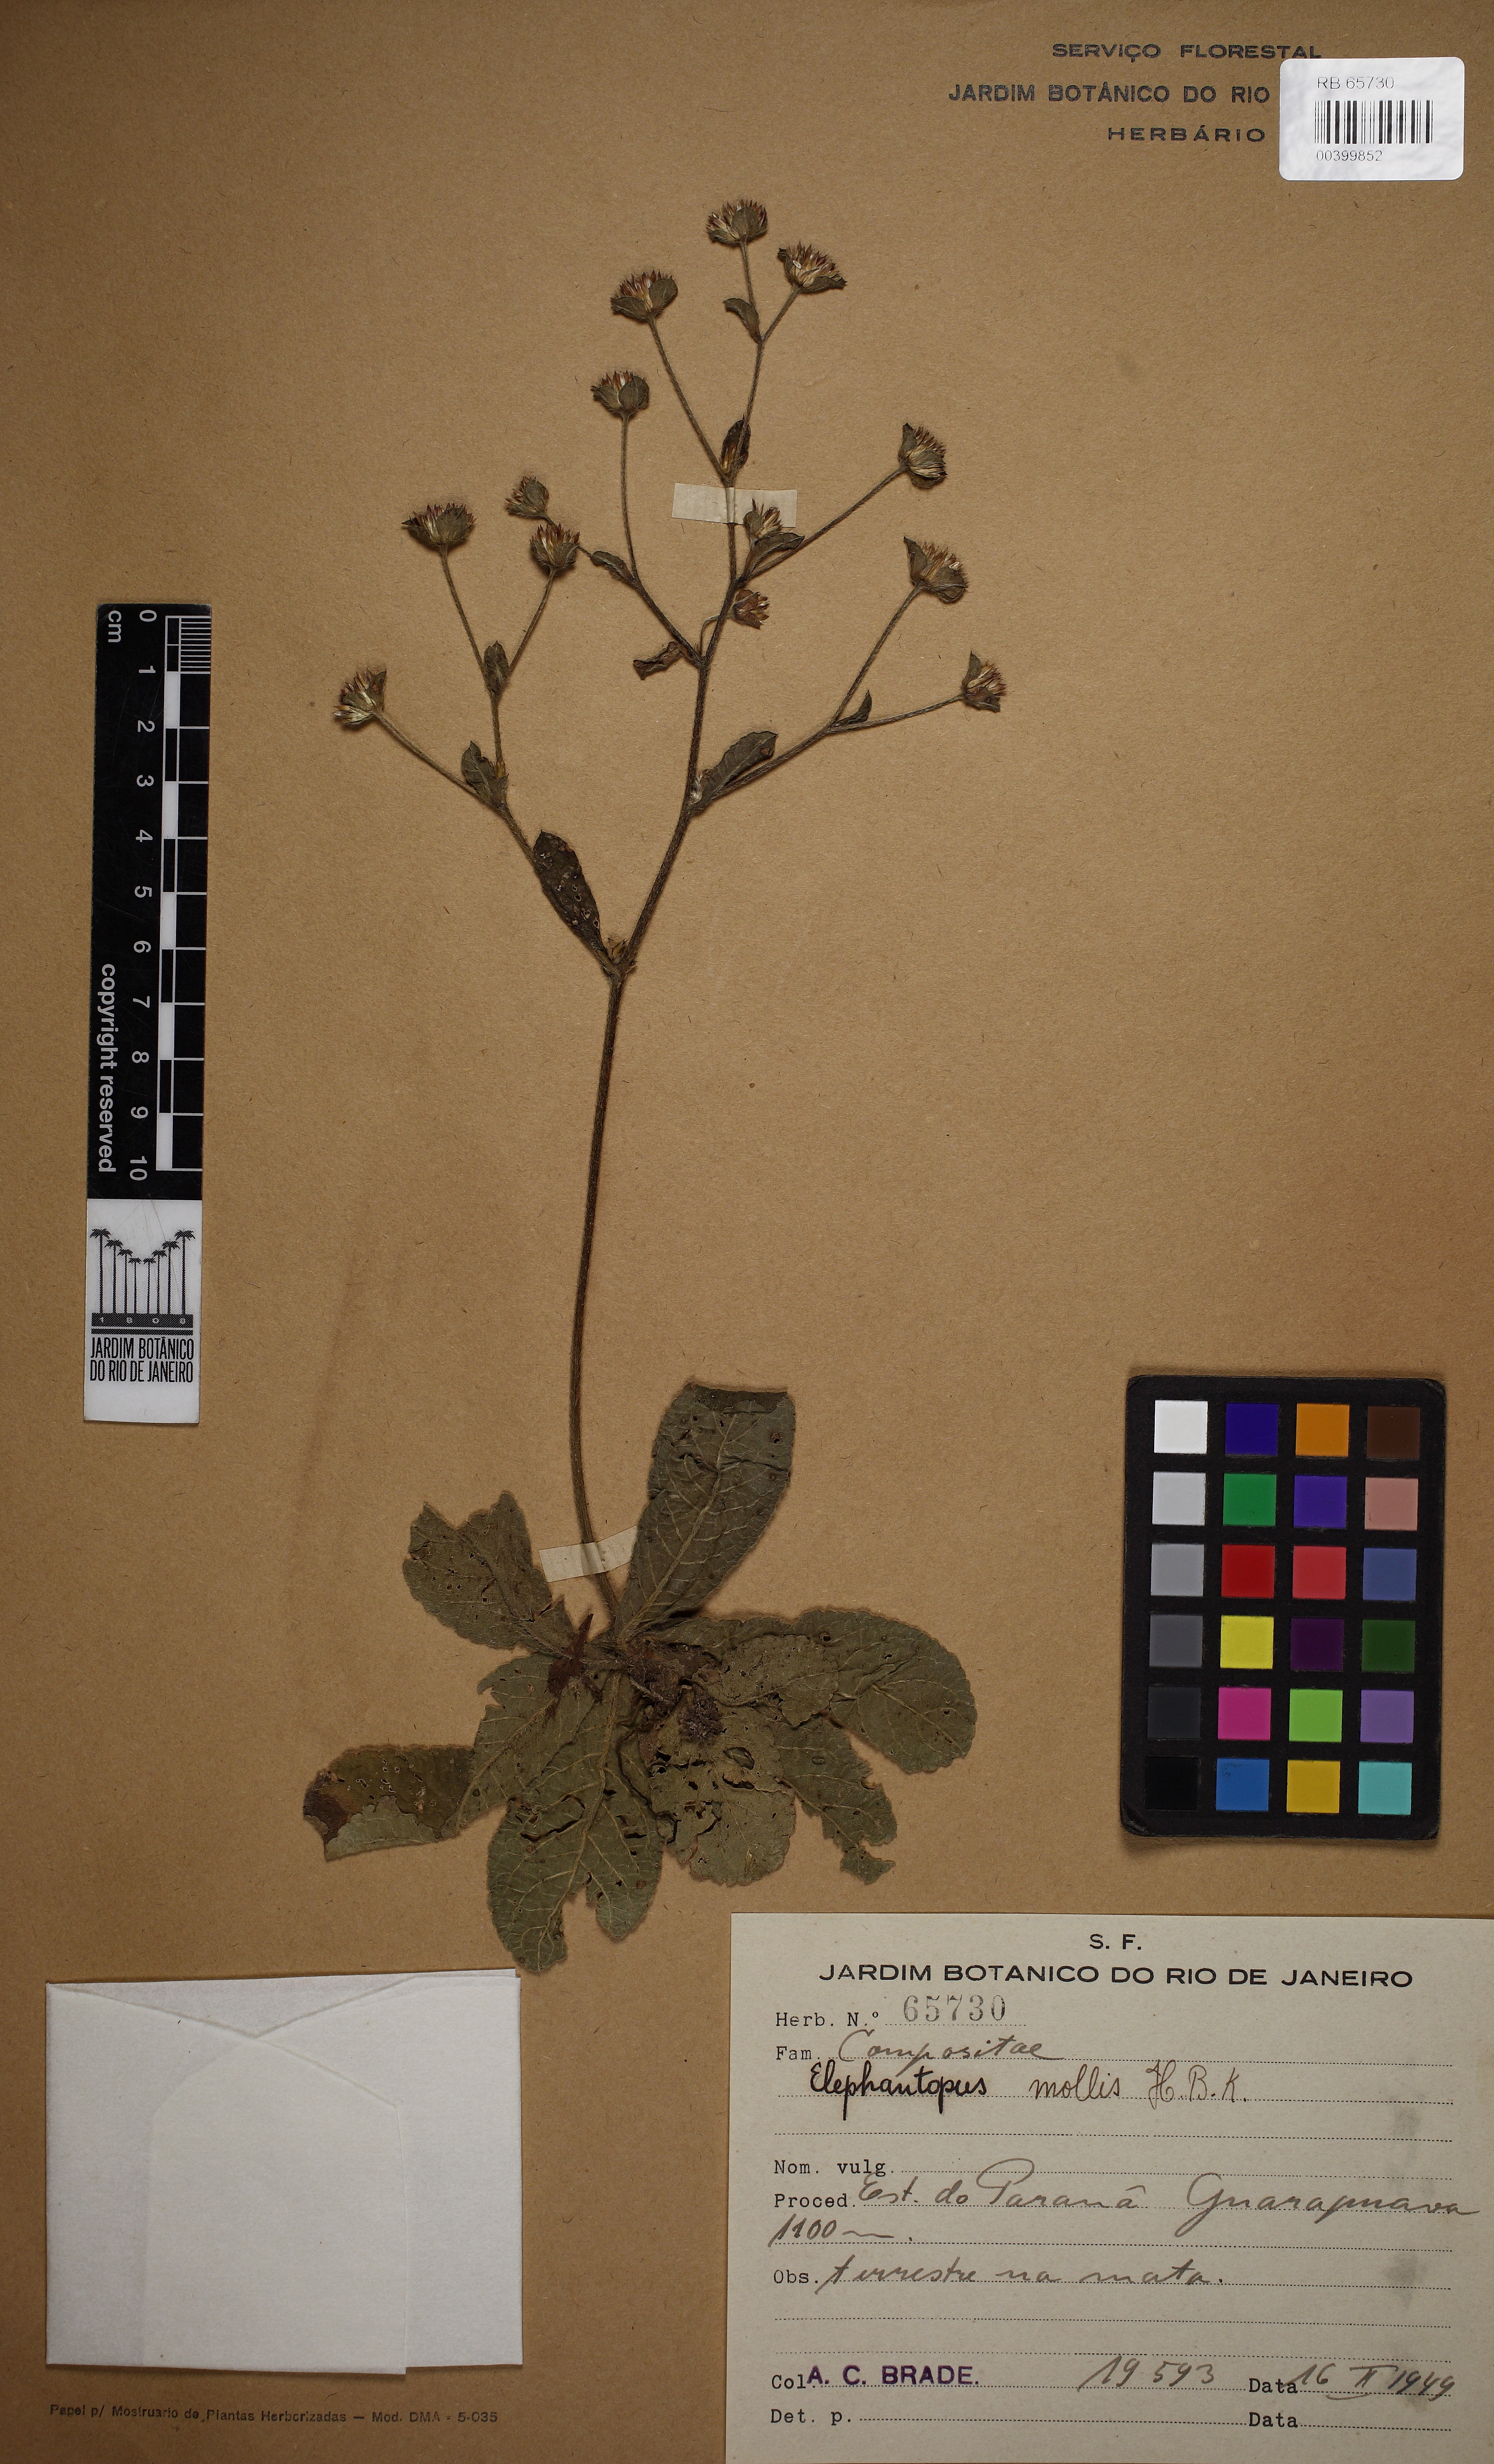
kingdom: Plantae
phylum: Tracheophyta
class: Magnoliopsida
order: Asterales
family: Asteraceae
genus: Elephantopus
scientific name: Elephantopus mollis
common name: Soft elephantsfoot
